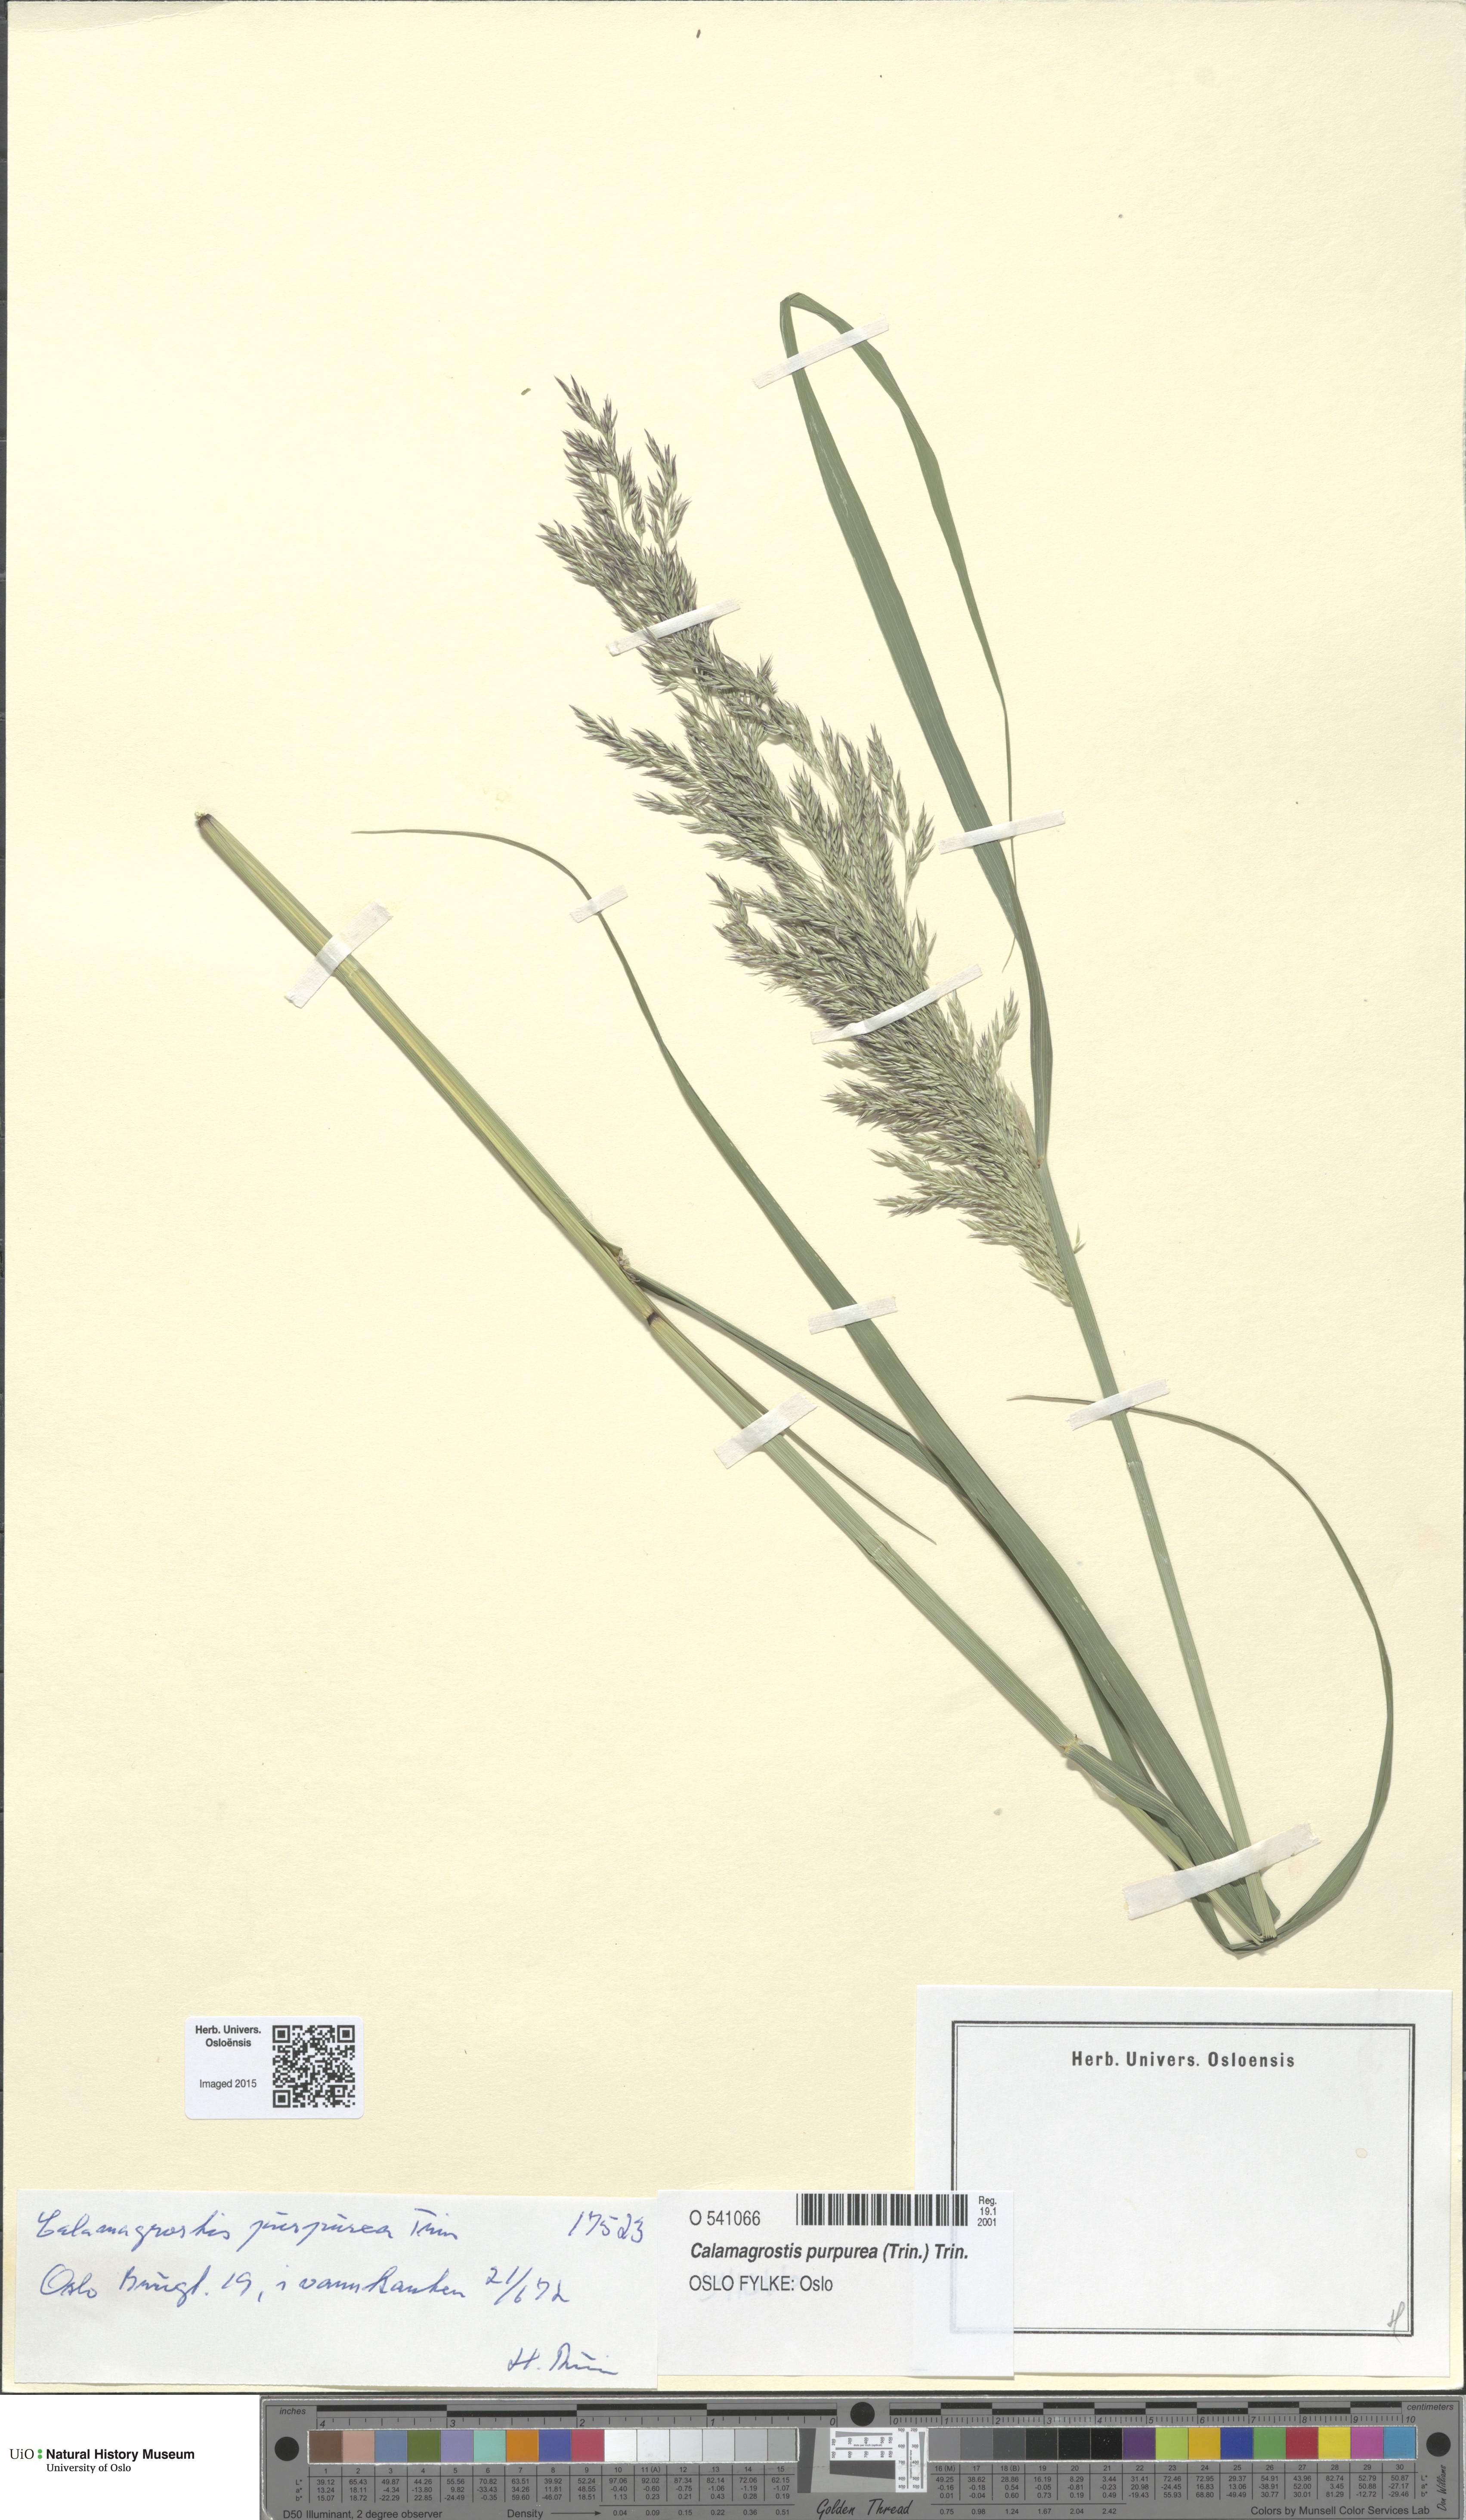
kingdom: Plantae
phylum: Tracheophyta
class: Liliopsida
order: Poales
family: Poaceae
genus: Calamagrostis
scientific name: Calamagrostis purpurea
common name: Scandinavian small-reed
